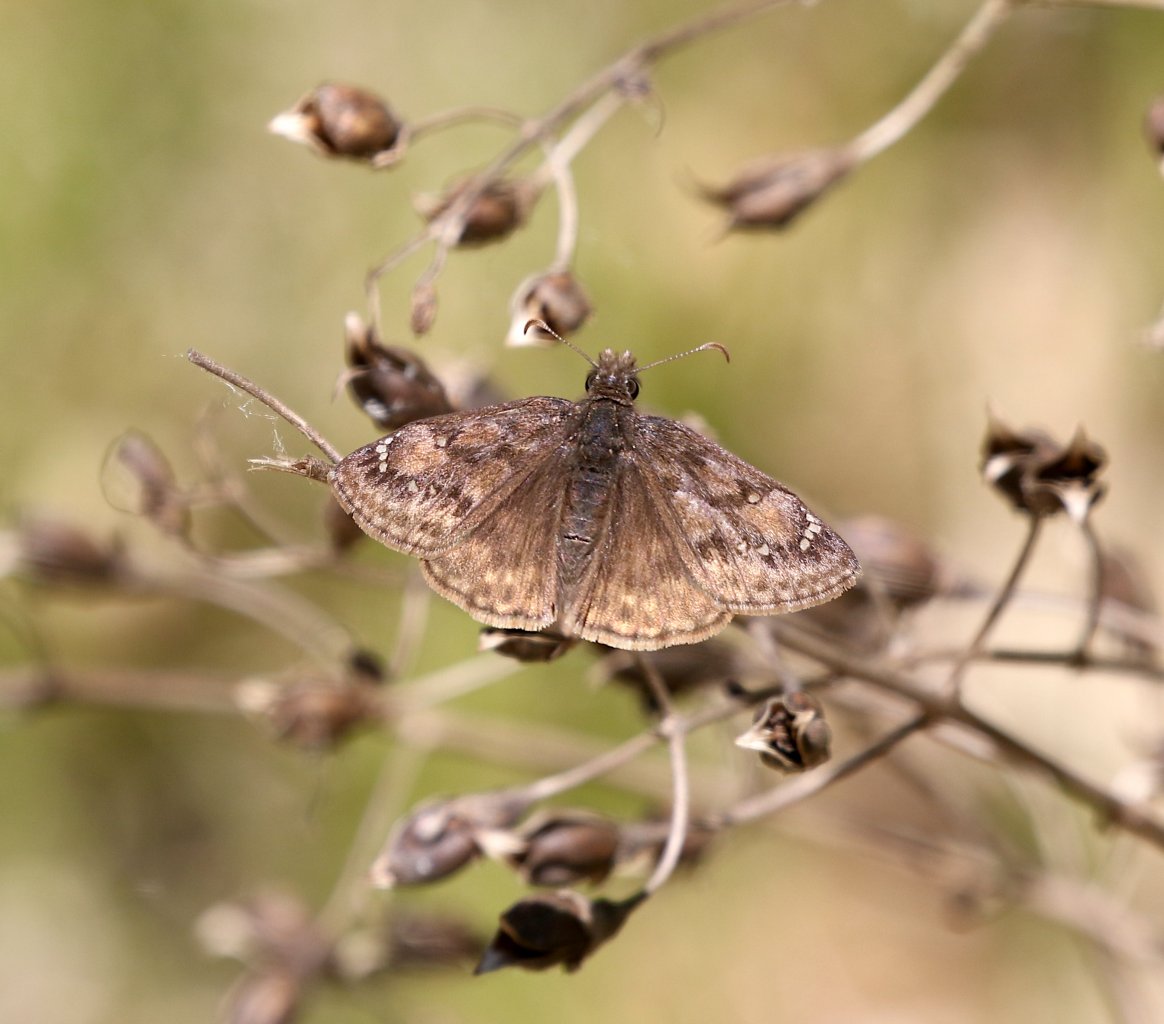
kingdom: Animalia
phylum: Arthropoda
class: Insecta
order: Lepidoptera
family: Hesperiidae
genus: Gesta
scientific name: Gesta
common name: Juvenal's Duskywing
